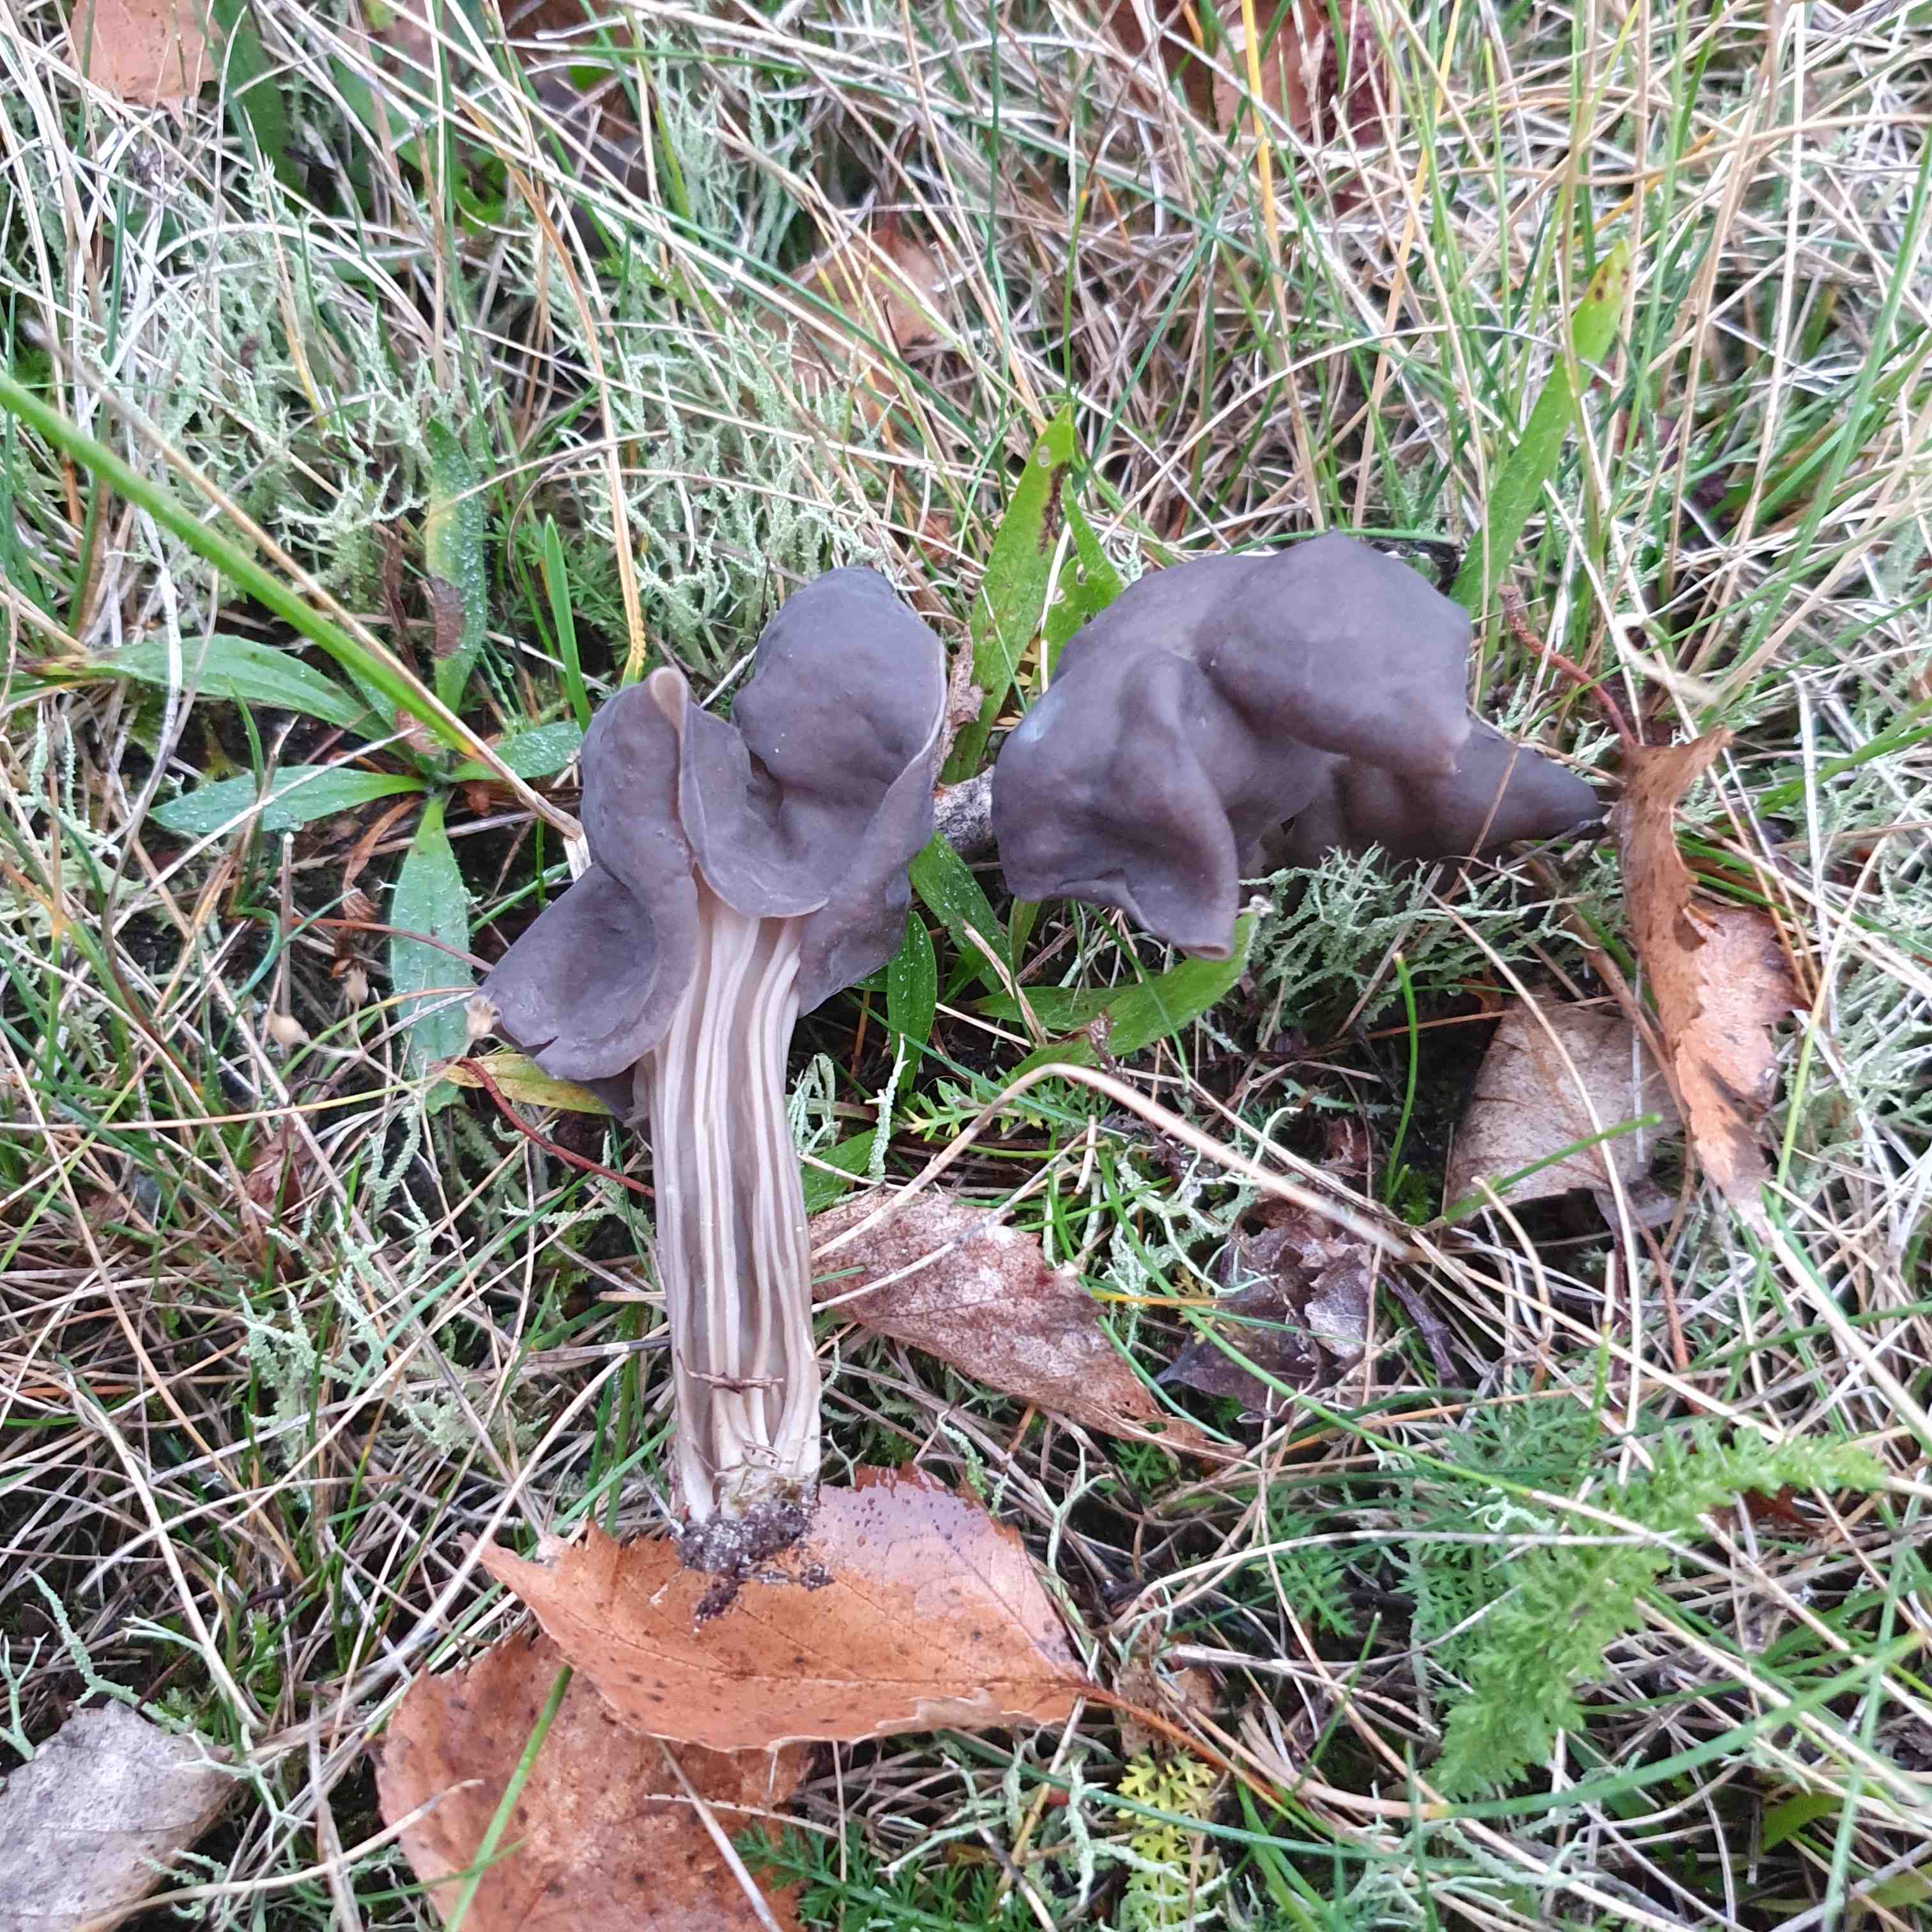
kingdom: Fungi
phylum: Ascomycota
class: Pezizomycetes
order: Pezizales
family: Helvellaceae
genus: Helvella
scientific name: Helvella lacunosa
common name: grubet foldhat
